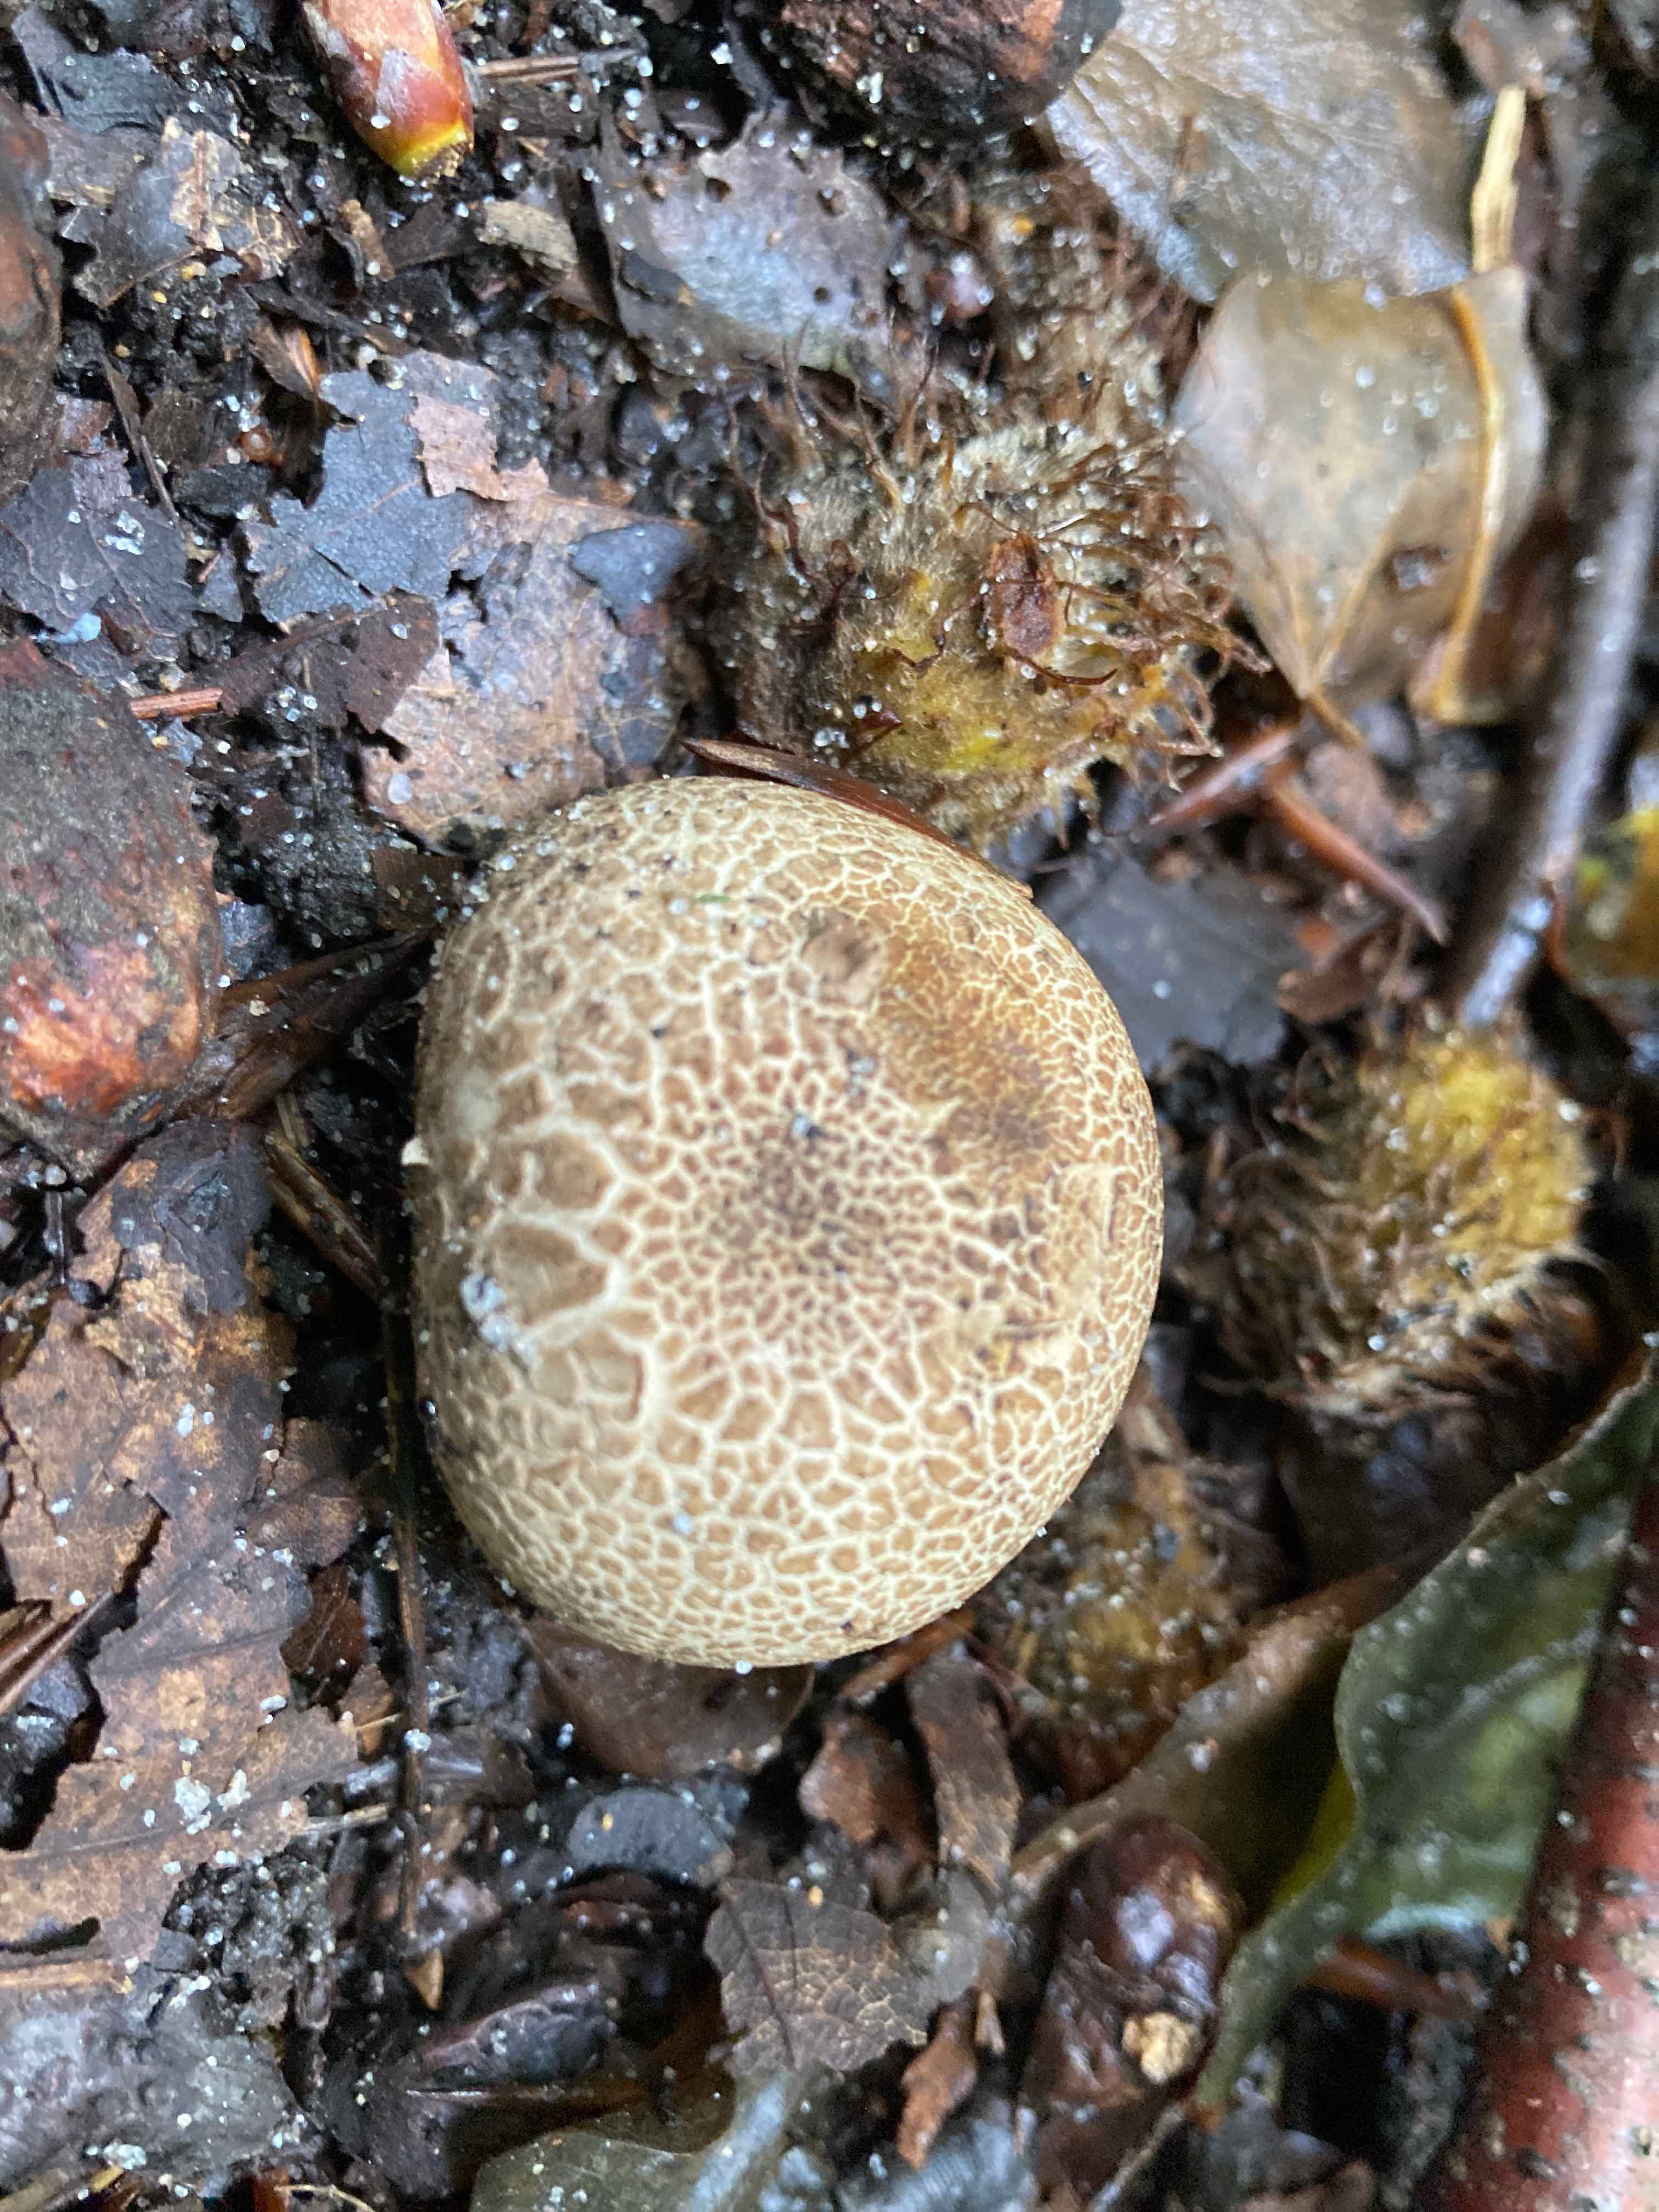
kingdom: Fungi
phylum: Basidiomycota
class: Agaricomycetes
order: Boletales
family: Sclerodermataceae
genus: Scleroderma
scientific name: Scleroderma areolatum
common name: plettet bruskbold
